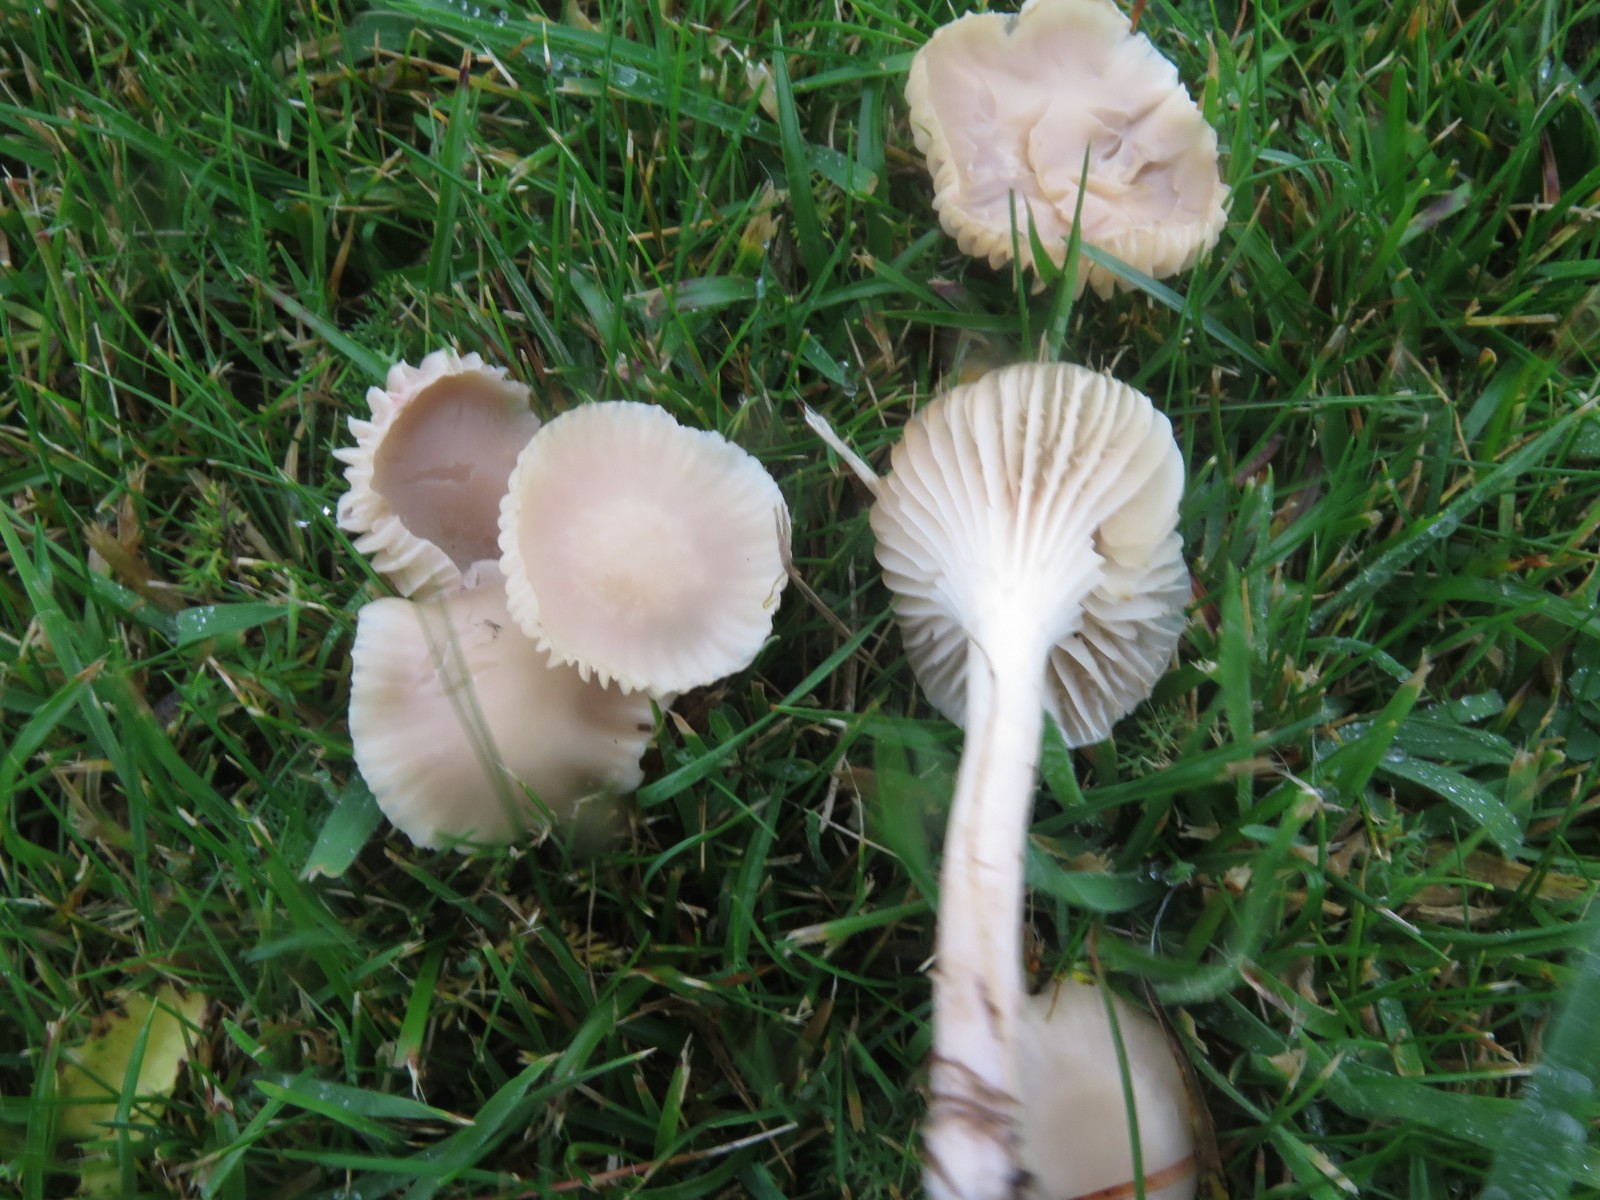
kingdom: Fungi
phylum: Basidiomycota
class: Agaricomycetes
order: Agaricales
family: Hygrophoraceae
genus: Cuphophyllus
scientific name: Cuphophyllus
